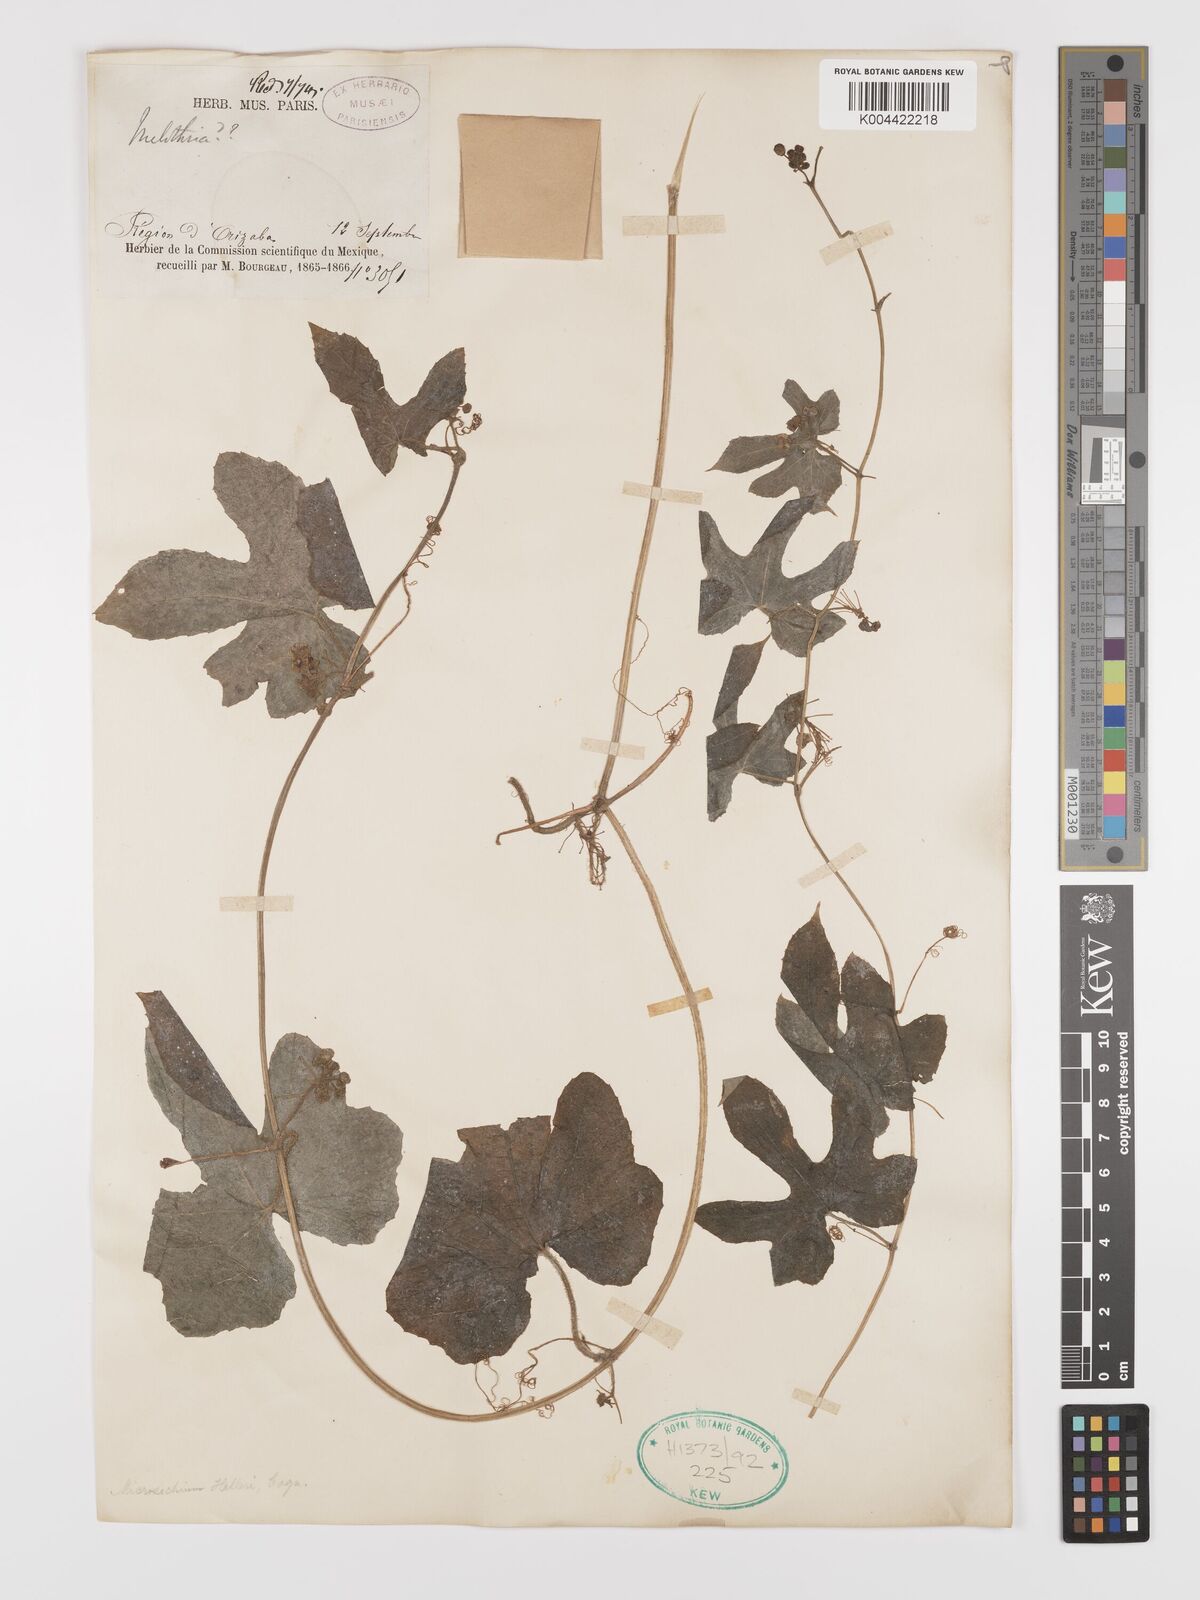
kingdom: Plantae
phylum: Tracheophyta
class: Magnoliopsida
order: Cucurbitales
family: Cucurbitaceae
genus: Microsechium
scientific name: Microsechium palmatum
